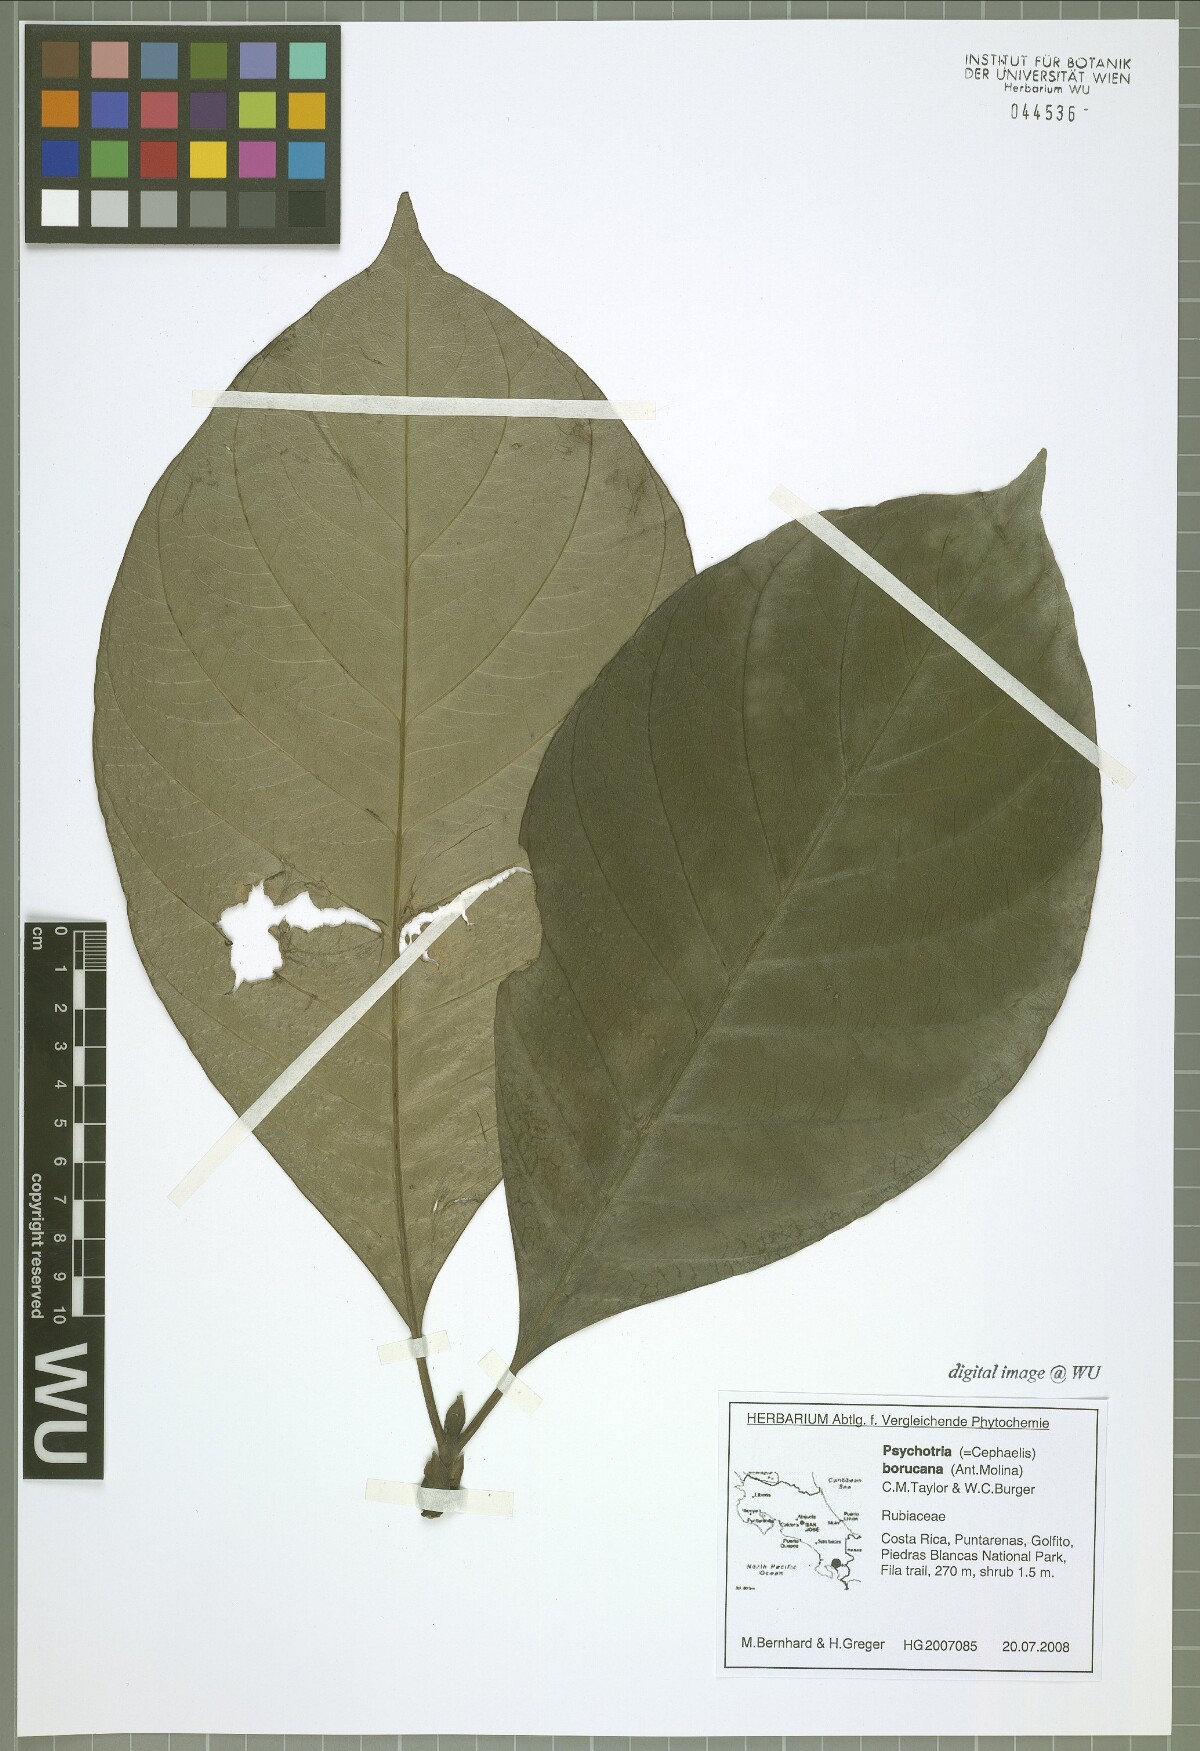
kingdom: Plantae
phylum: Tracheophyta
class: Magnoliopsida
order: Gentianales
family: Rubiaceae
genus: Carapichea
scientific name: Carapichea affinis
